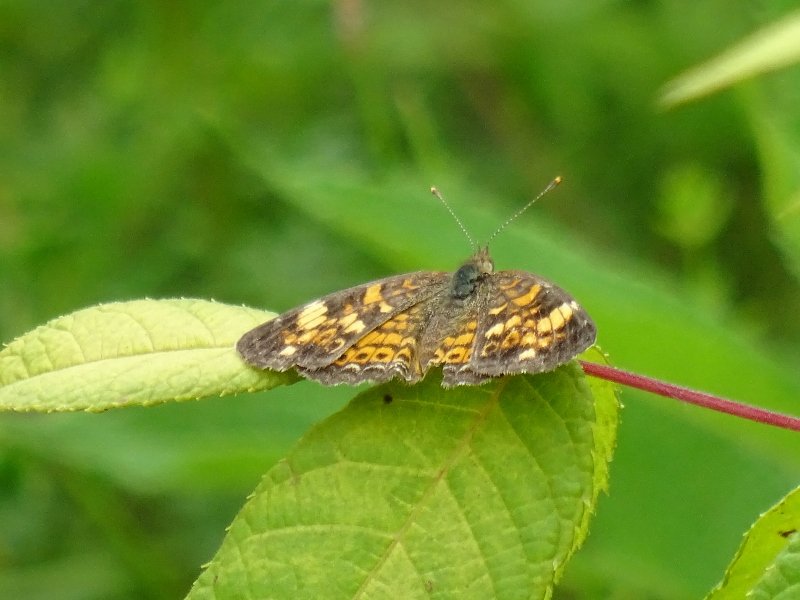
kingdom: Animalia
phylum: Arthropoda
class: Insecta
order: Lepidoptera
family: Nymphalidae
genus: Phyciodes
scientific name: Phyciodes tharos
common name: Northern Crescent
